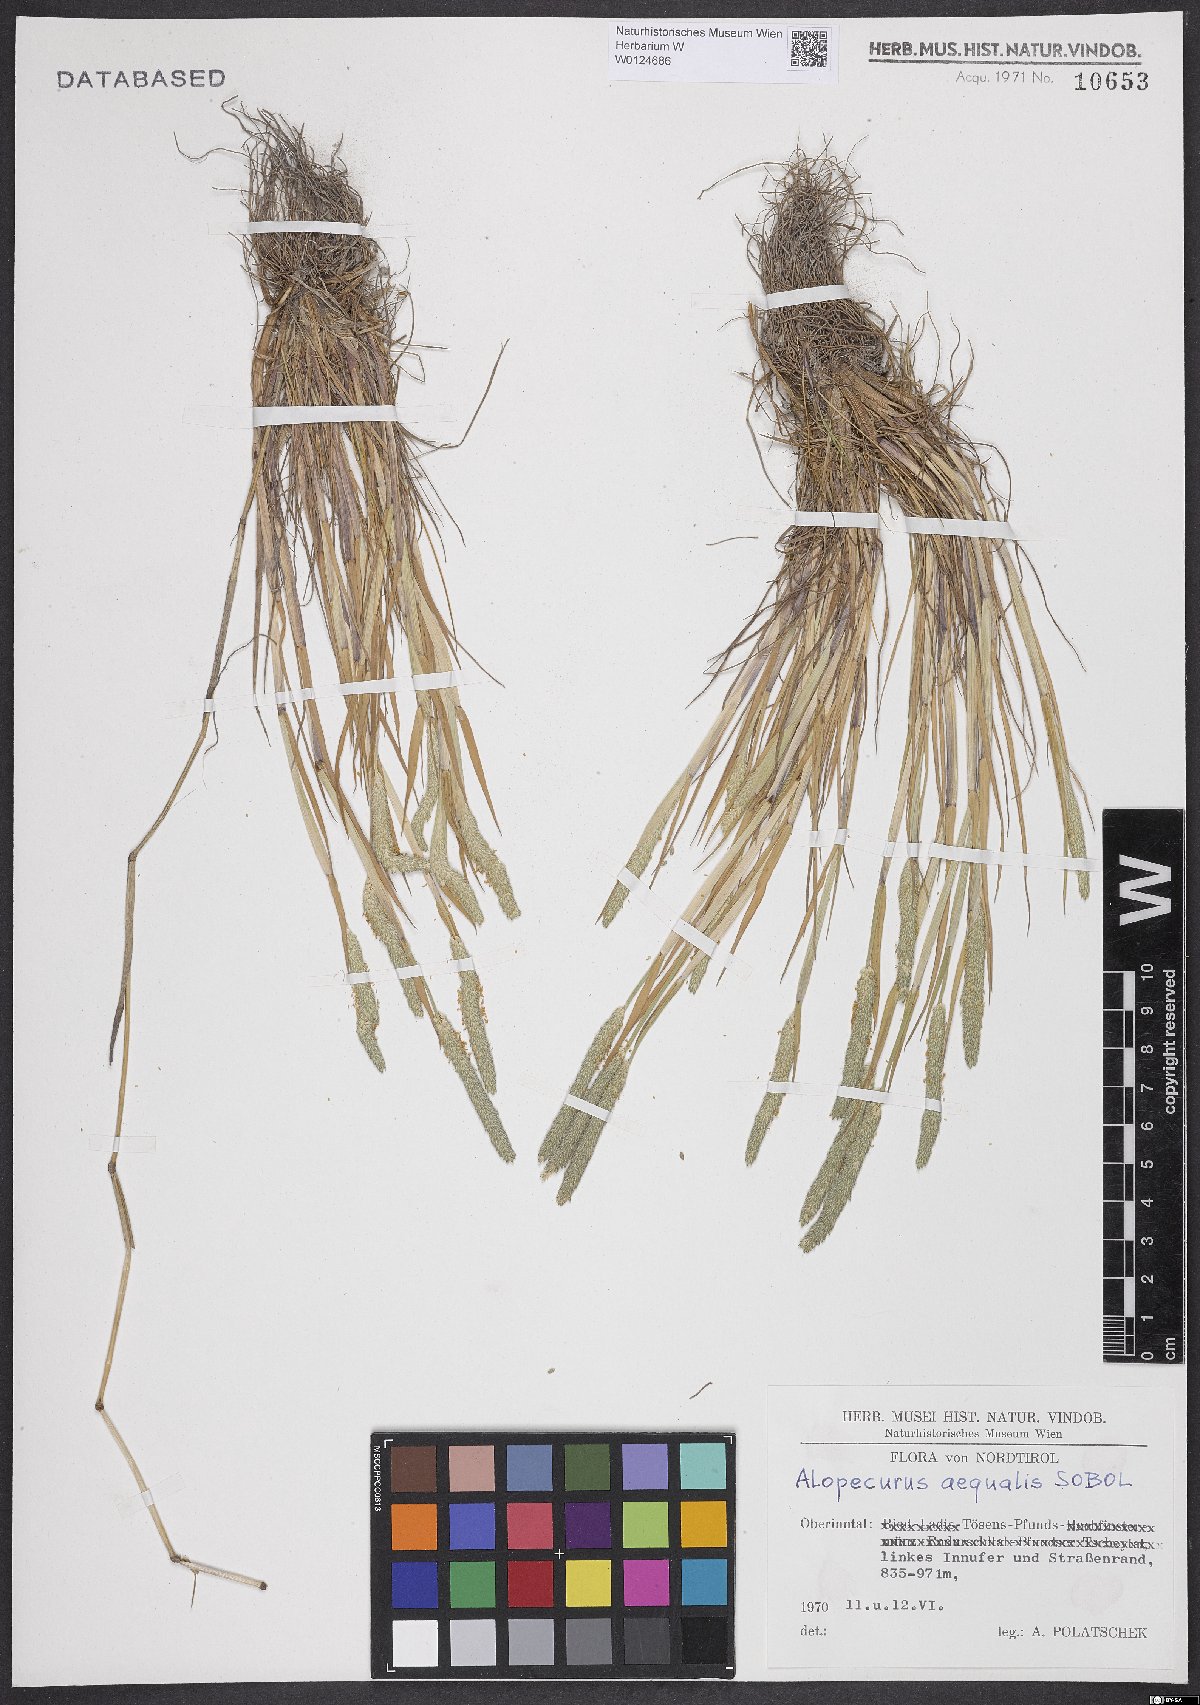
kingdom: Plantae
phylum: Tracheophyta
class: Liliopsida
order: Poales
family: Poaceae
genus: Alopecurus
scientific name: Alopecurus aequalis
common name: Orange foxtail
